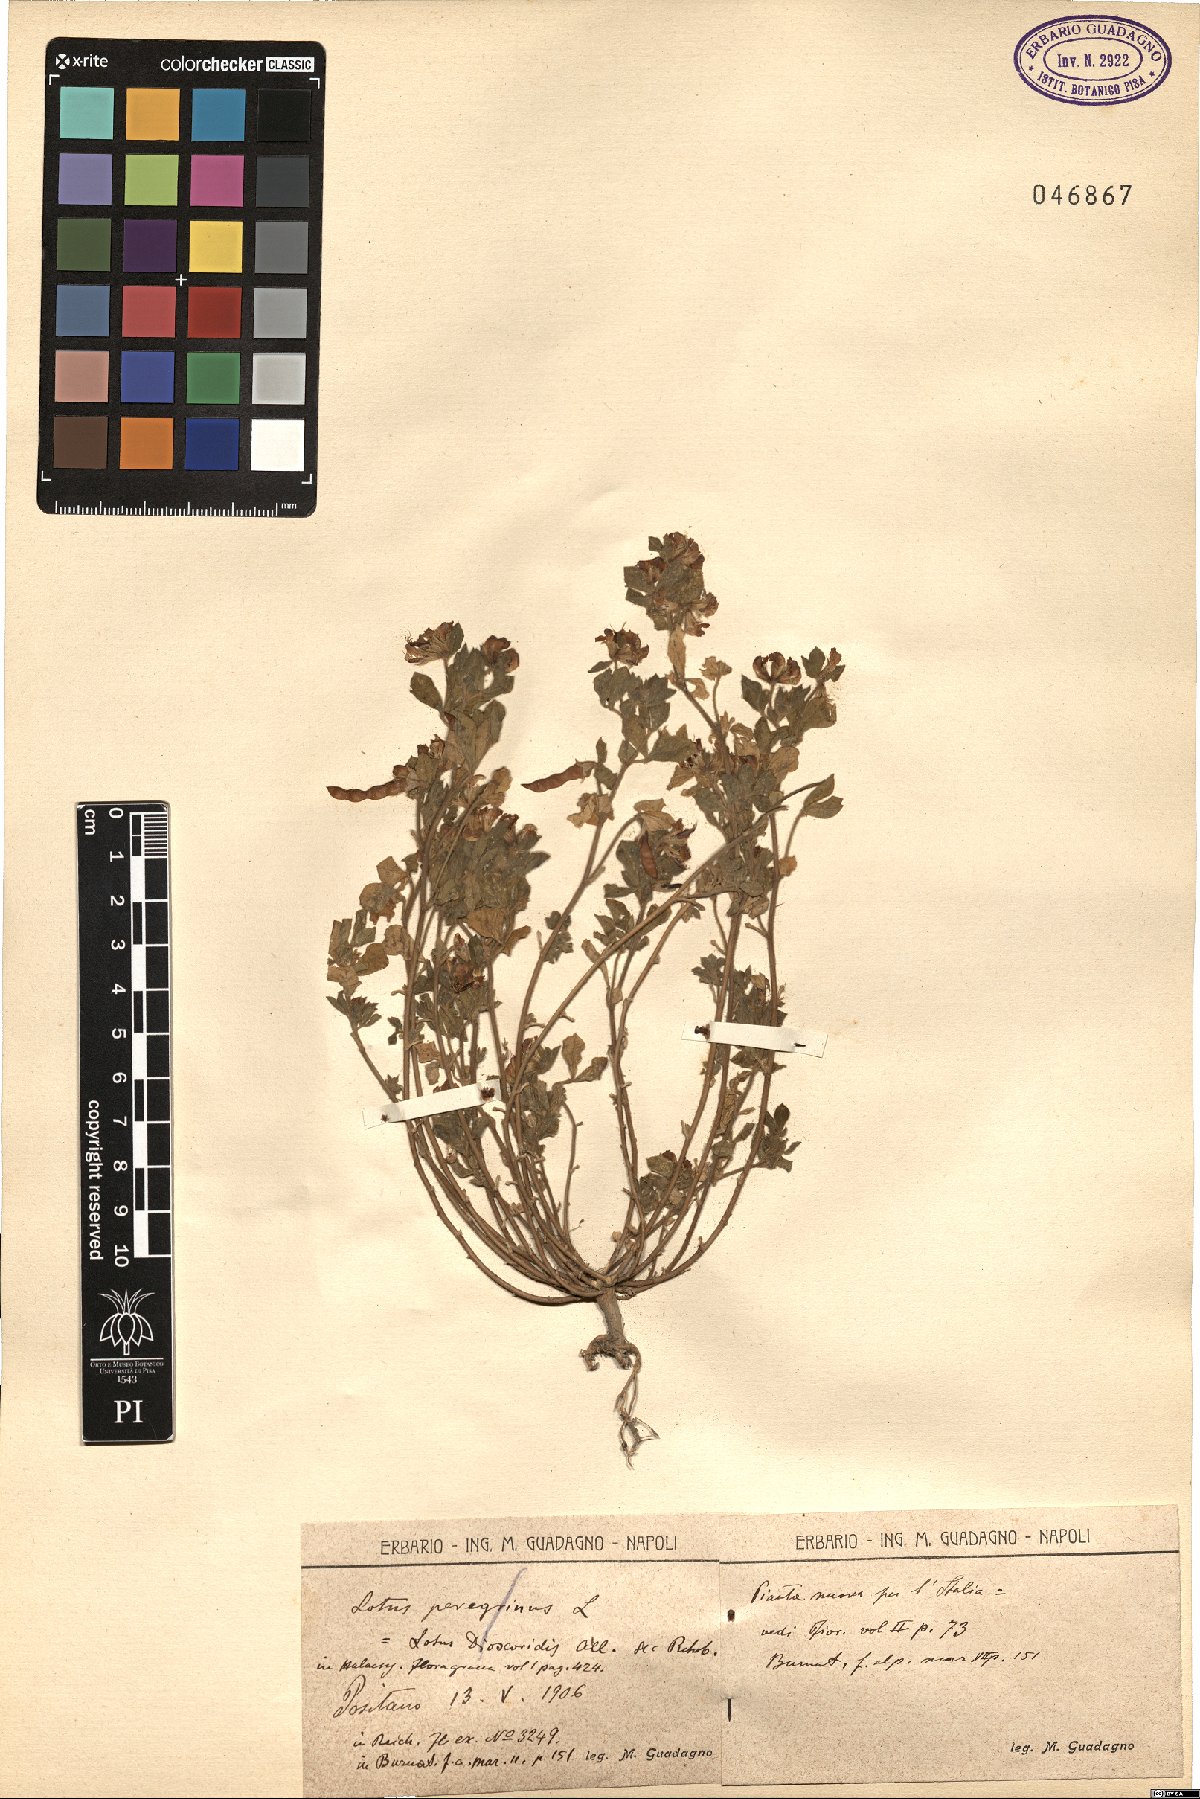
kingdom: Plantae
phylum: Tracheophyta
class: Magnoliopsida
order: Fabales
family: Fabaceae
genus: Lotus
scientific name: Lotus peregrinus
